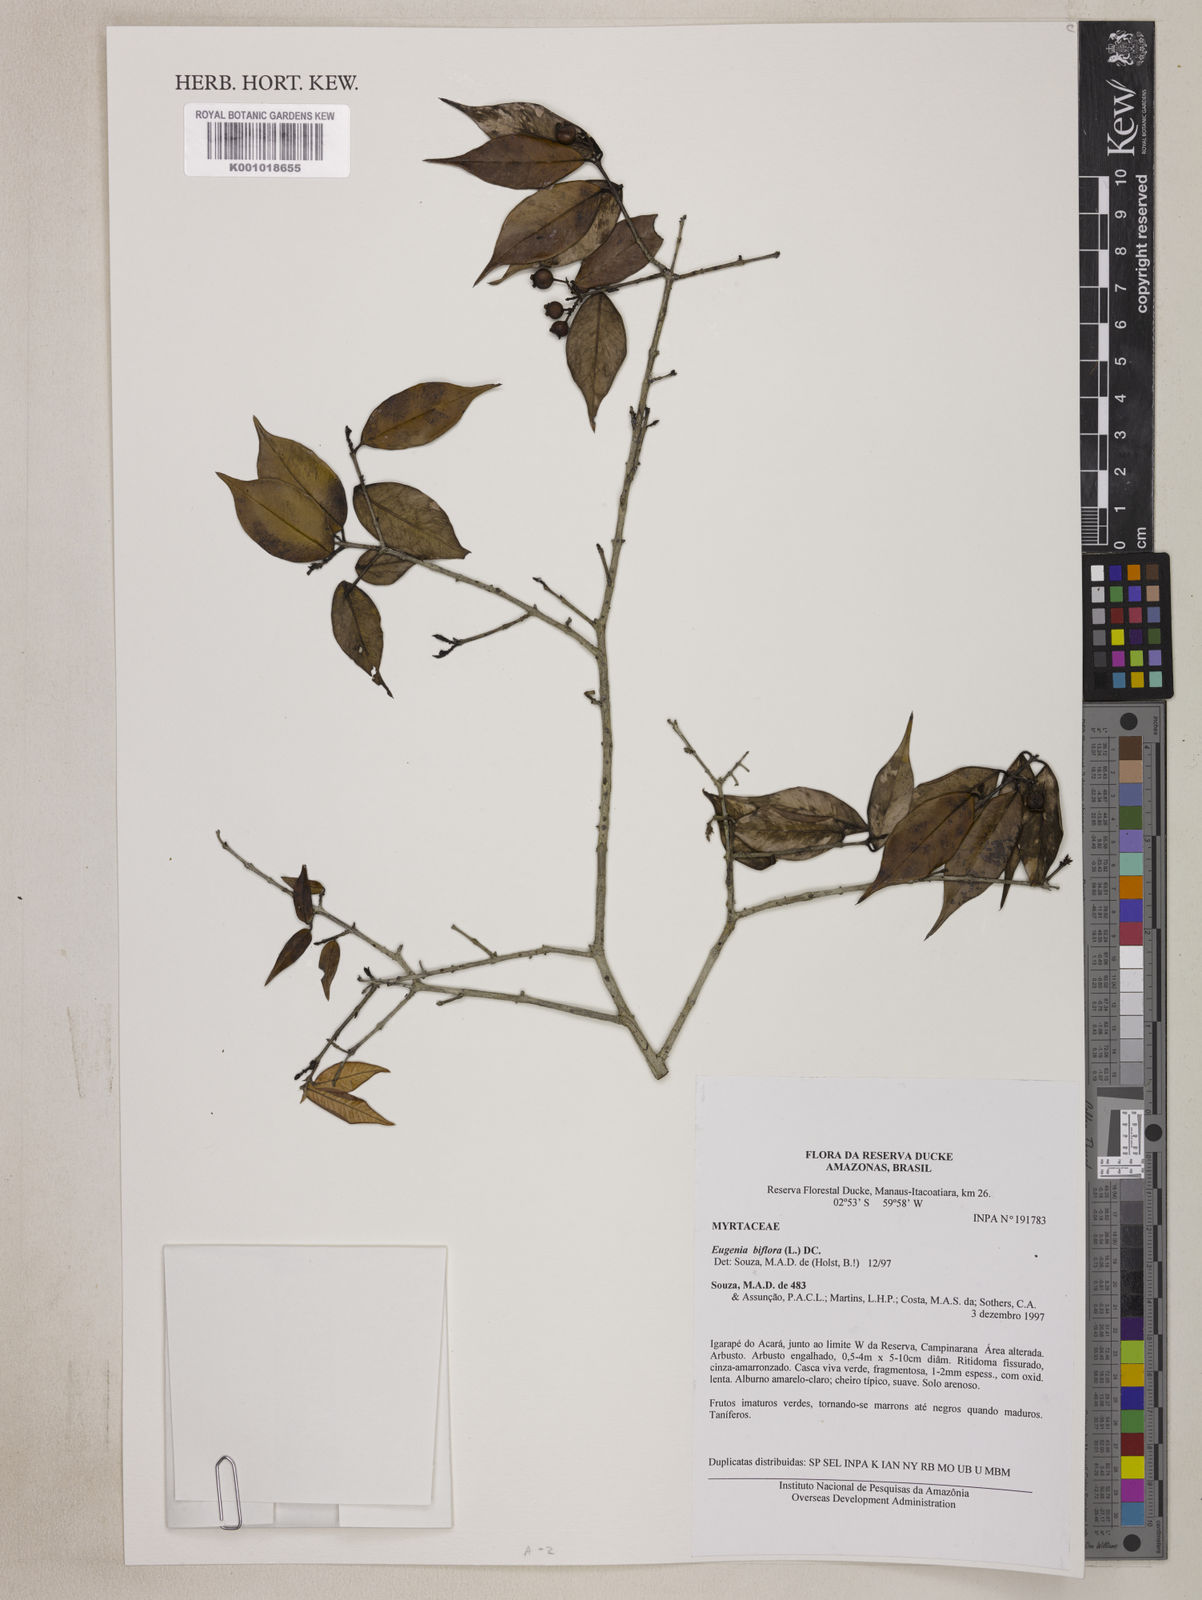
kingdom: Plantae
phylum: Tracheophyta
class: Magnoliopsida
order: Myrtales
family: Myrtaceae
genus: Eugenia
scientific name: Eugenia biflora
